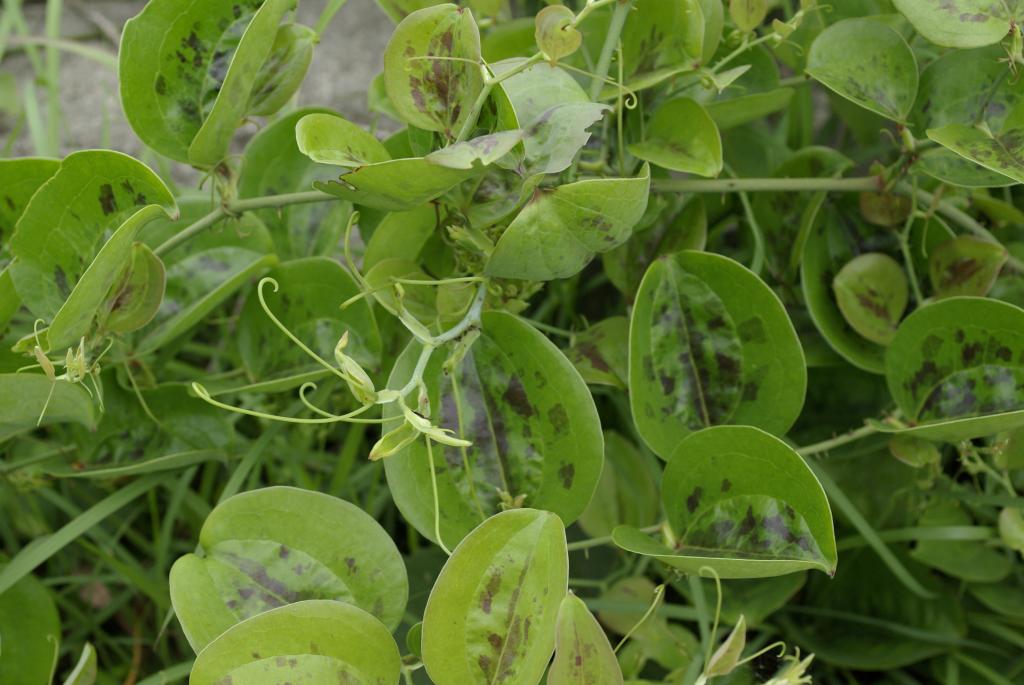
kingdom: Plantae
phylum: Tracheophyta
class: Liliopsida
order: Liliales
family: Smilacaceae
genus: Smilax
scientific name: Smilax china
